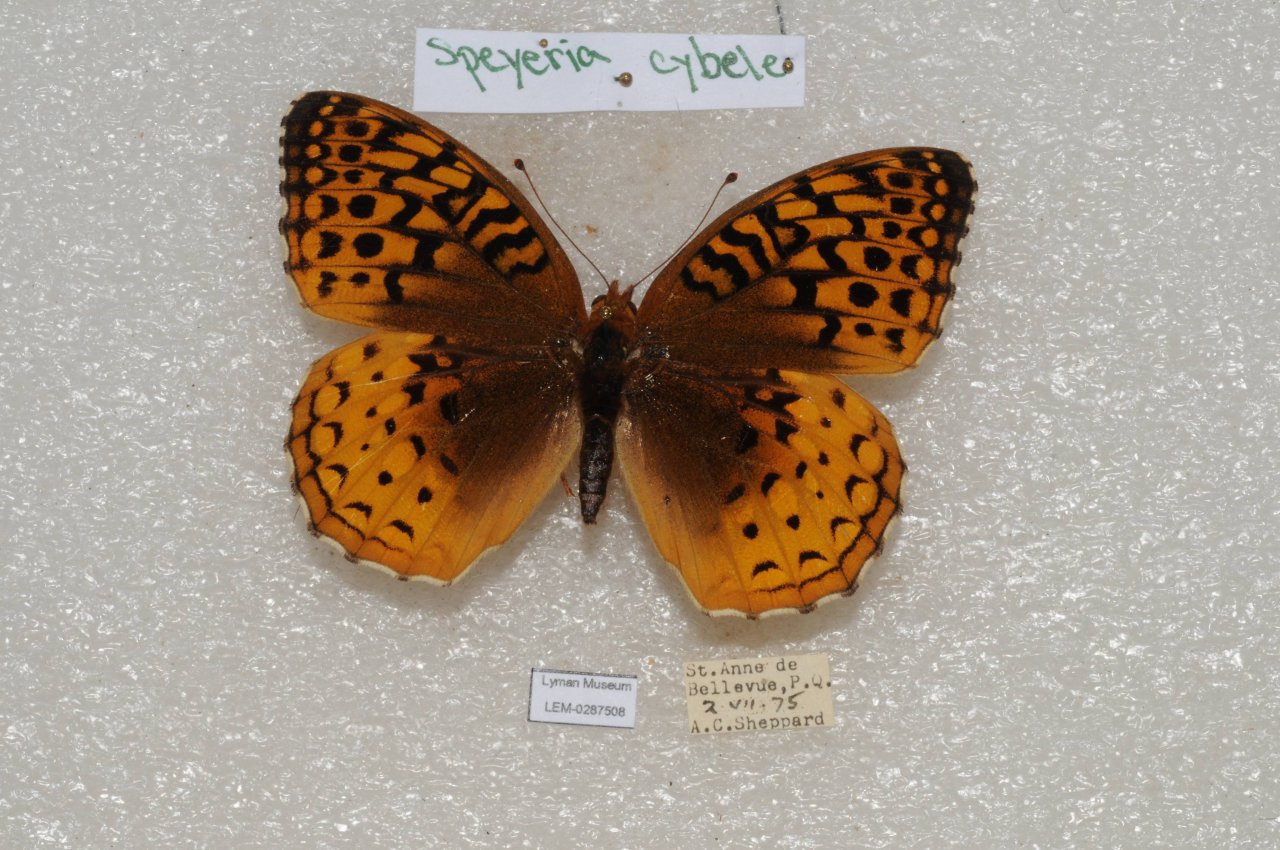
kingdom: Animalia
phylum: Arthropoda
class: Insecta
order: Lepidoptera
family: Nymphalidae
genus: Speyeria
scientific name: Speyeria cybele
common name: Great Spangled Fritillary
